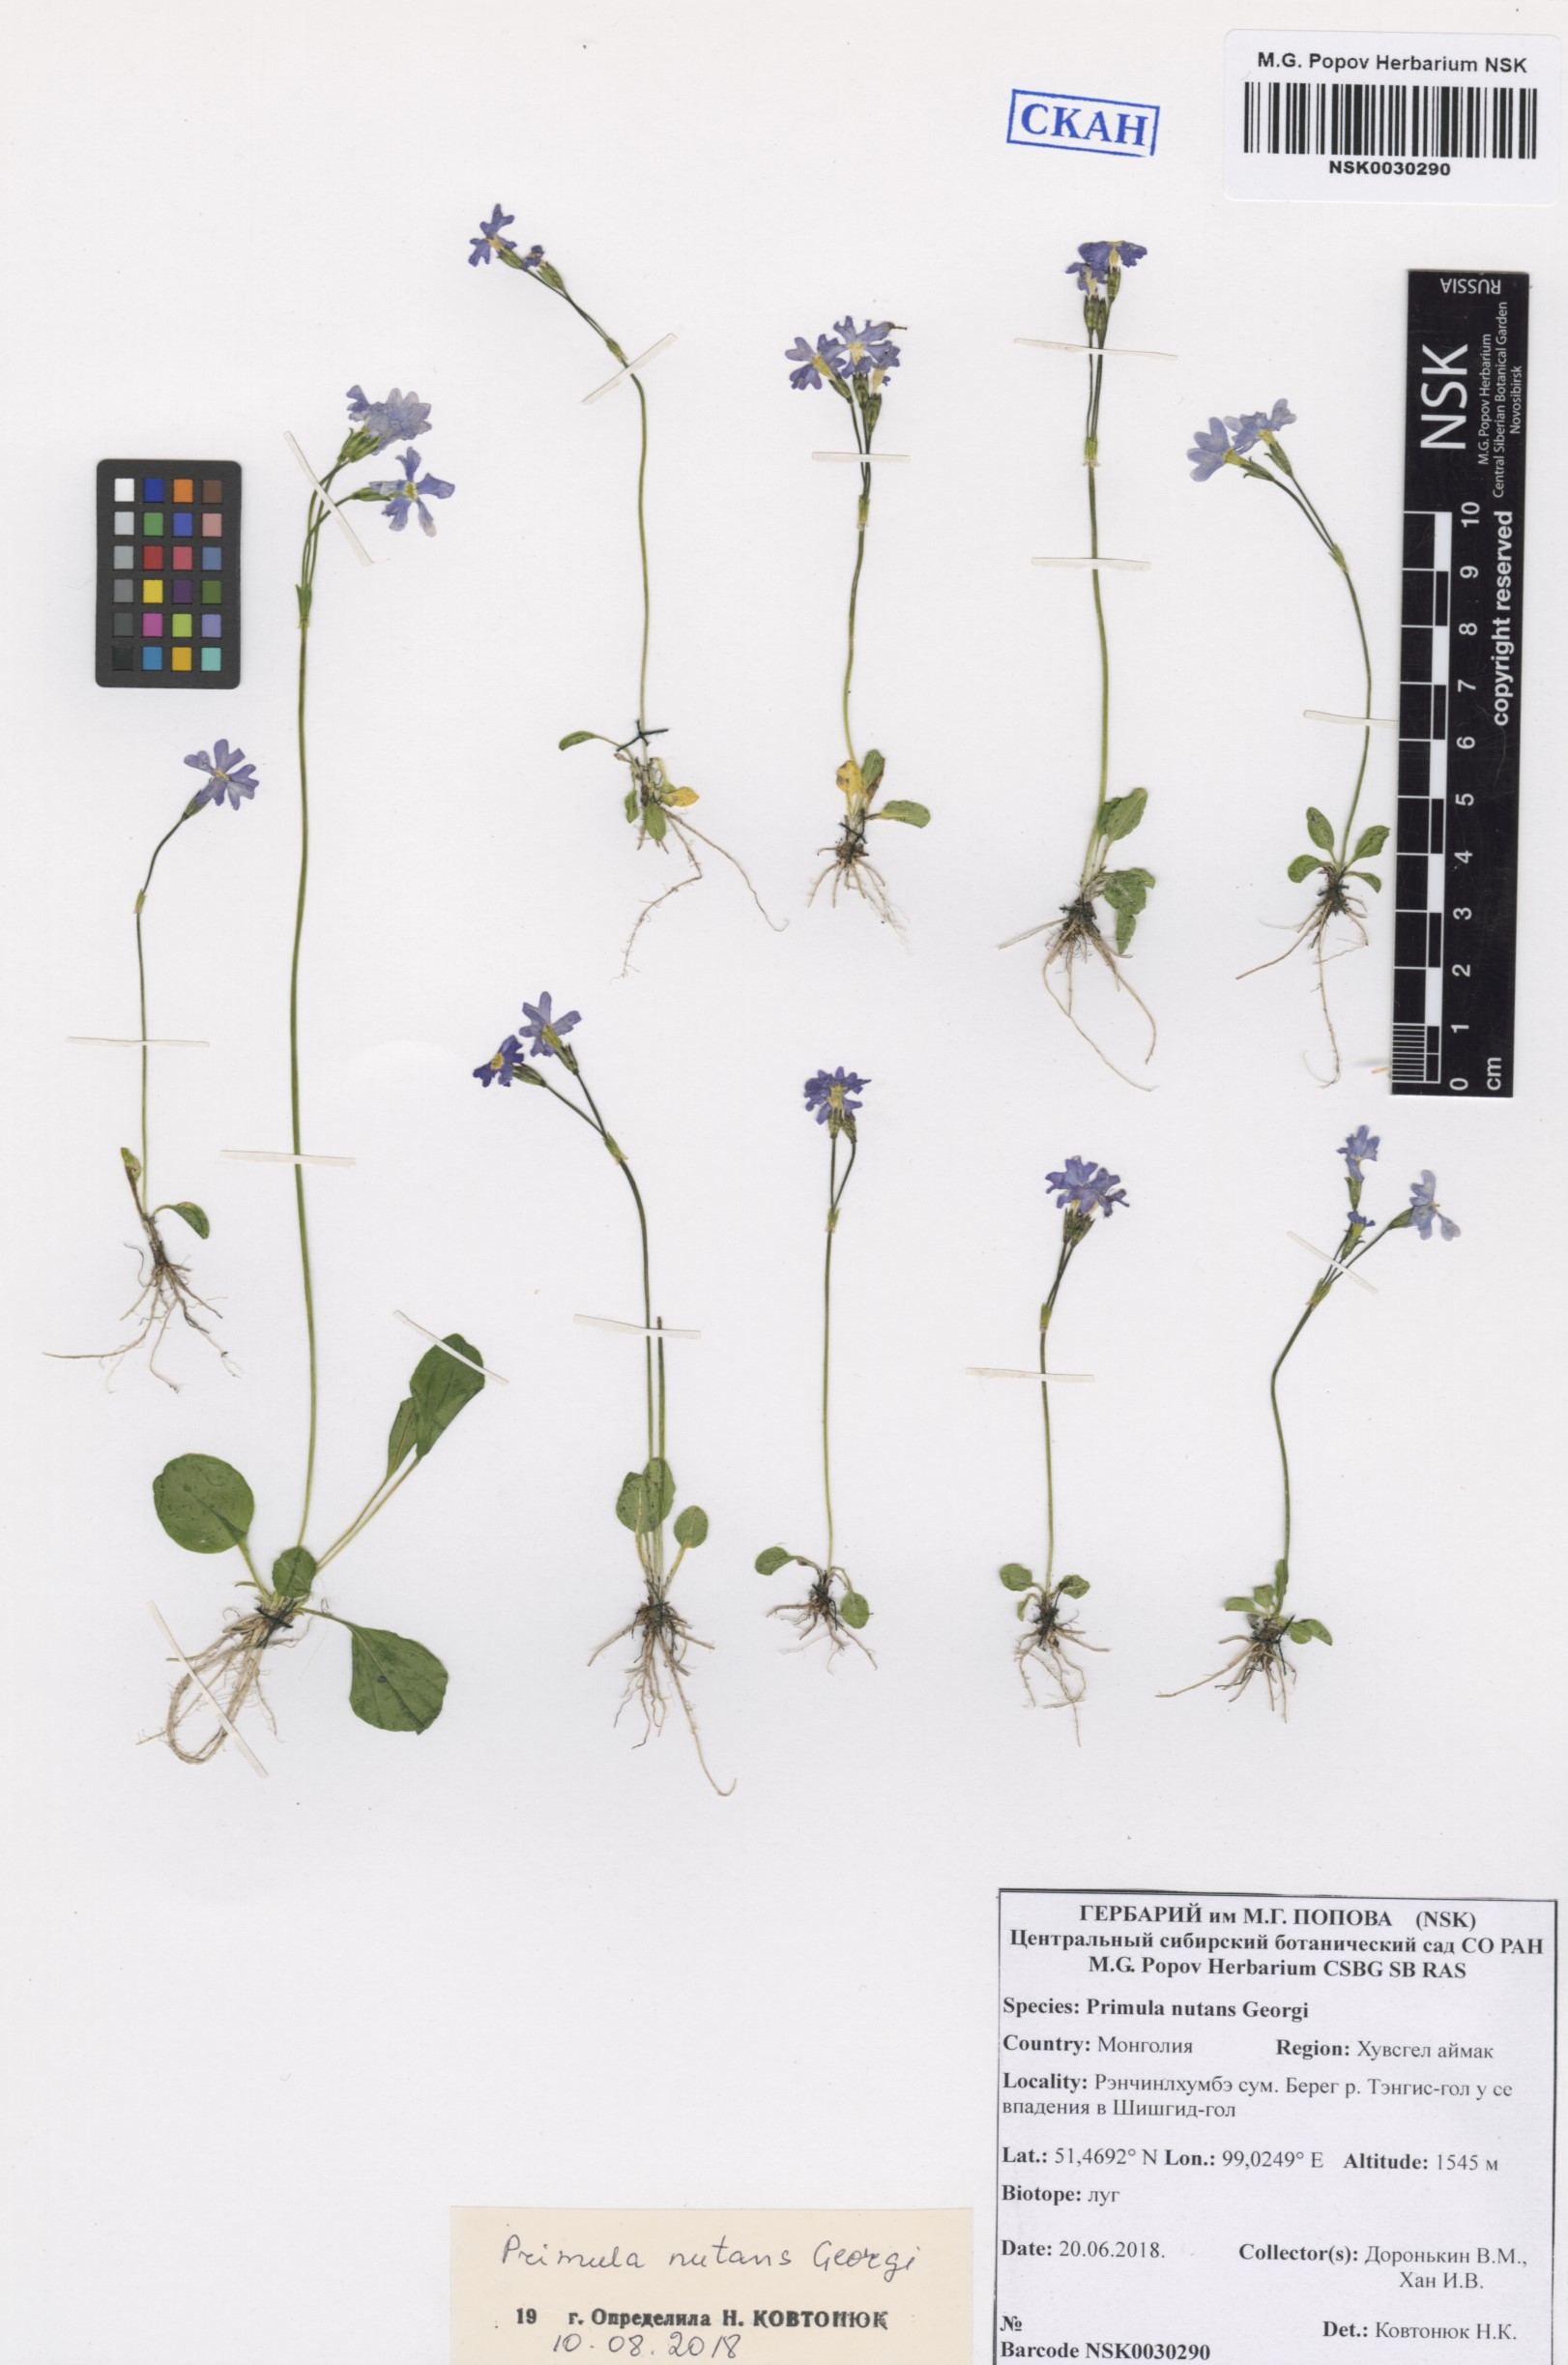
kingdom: Plantae
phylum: Tracheophyta
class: Magnoliopsida
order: Ericales
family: Primulaceae
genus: Primula
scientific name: Primula nutans
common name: Siberian primrose
